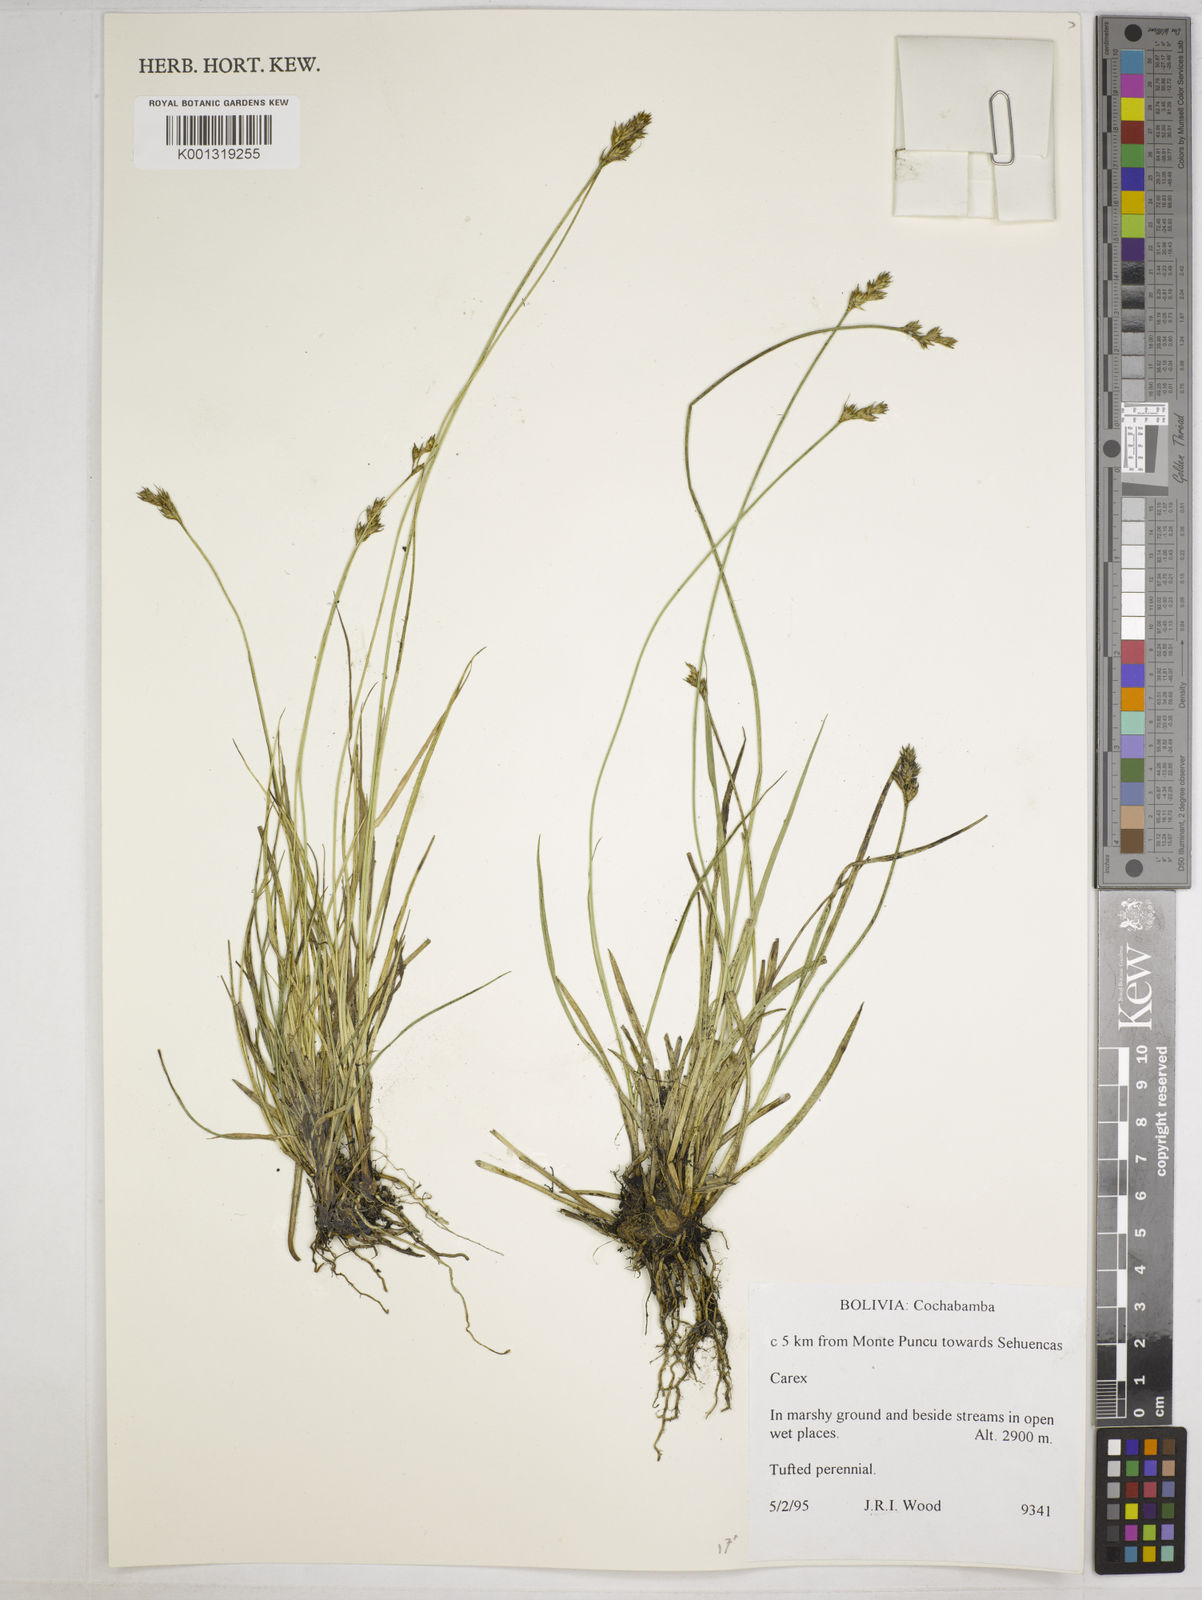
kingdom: Plantae
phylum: Tracheophyta
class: Liliopsida
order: Poales
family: Cyperaceae
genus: Carex
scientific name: Carex bonplandii
